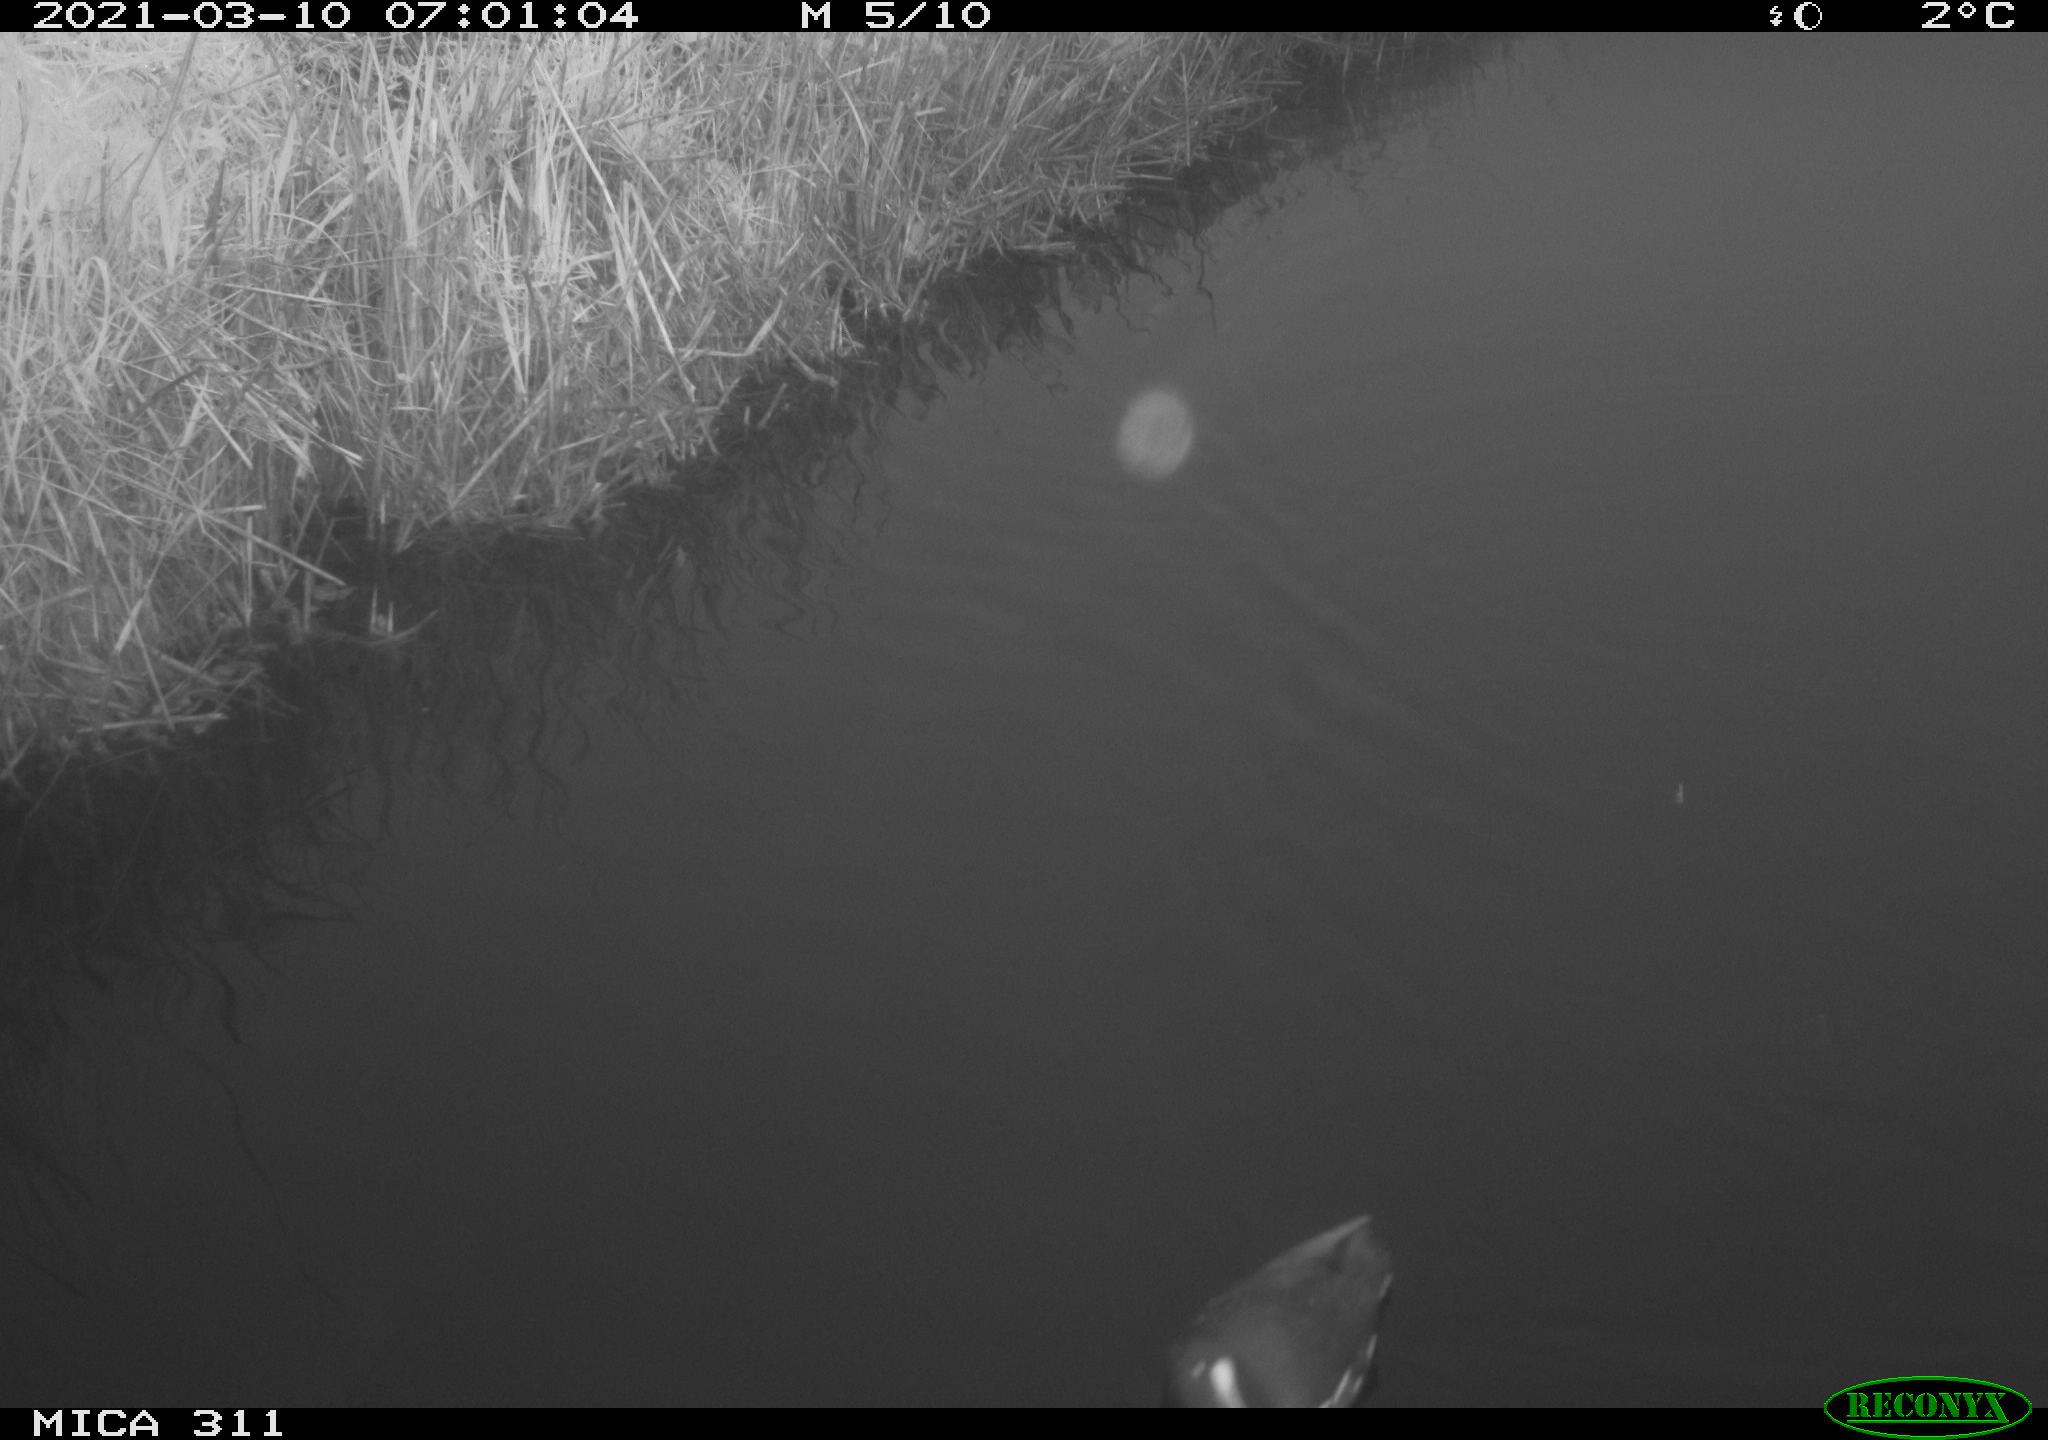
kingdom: Animalia
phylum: Chordata
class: Aves
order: Gruiformes
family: Rallidae
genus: Gallinula
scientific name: Gallinula chloropus
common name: Common moorhen
